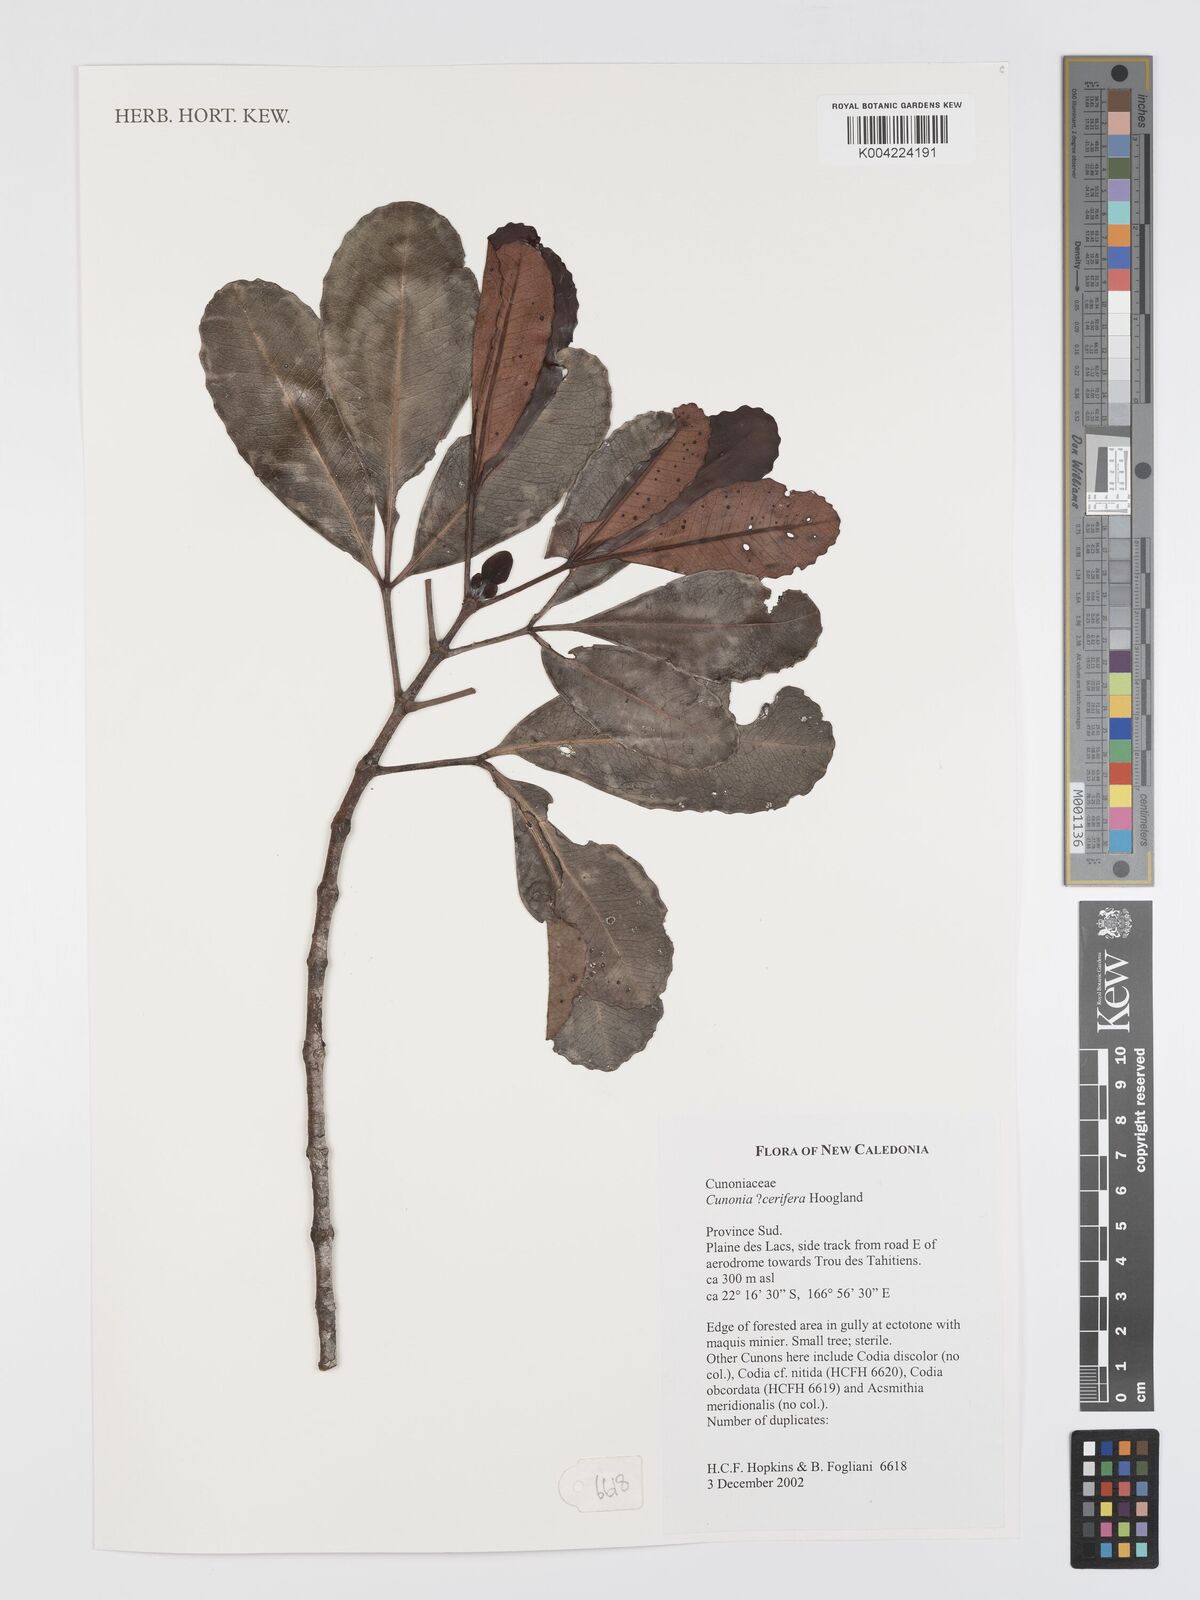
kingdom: Plantae
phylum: Tracheophyta
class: Magnoliopsida
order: Oxalidales
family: Cunoniaceae
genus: Cunonia
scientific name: Cunonia cerifera
